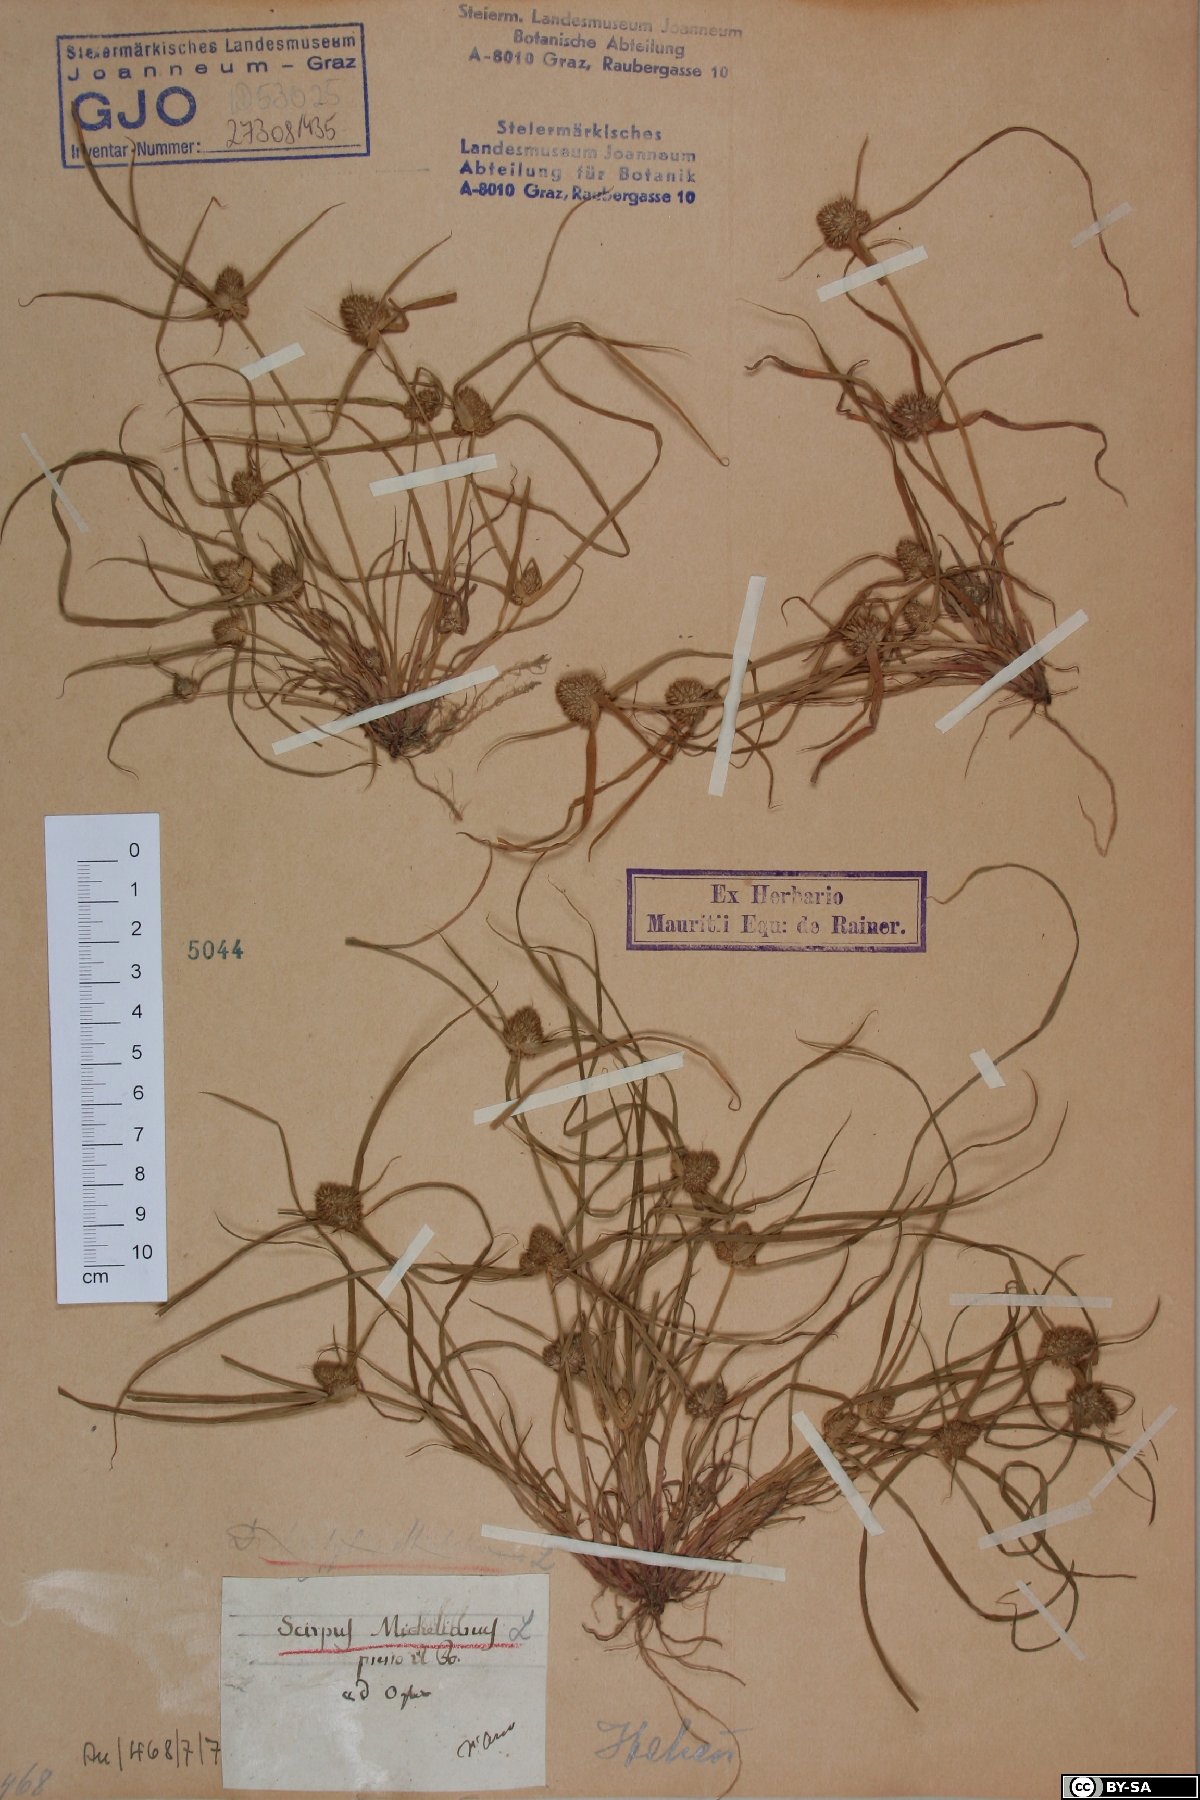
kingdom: Plantae
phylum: Tracheophyta
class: Liliopsida
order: Poales
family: Cyperaceae
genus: Cyperus
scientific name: Cyperus michelianus
